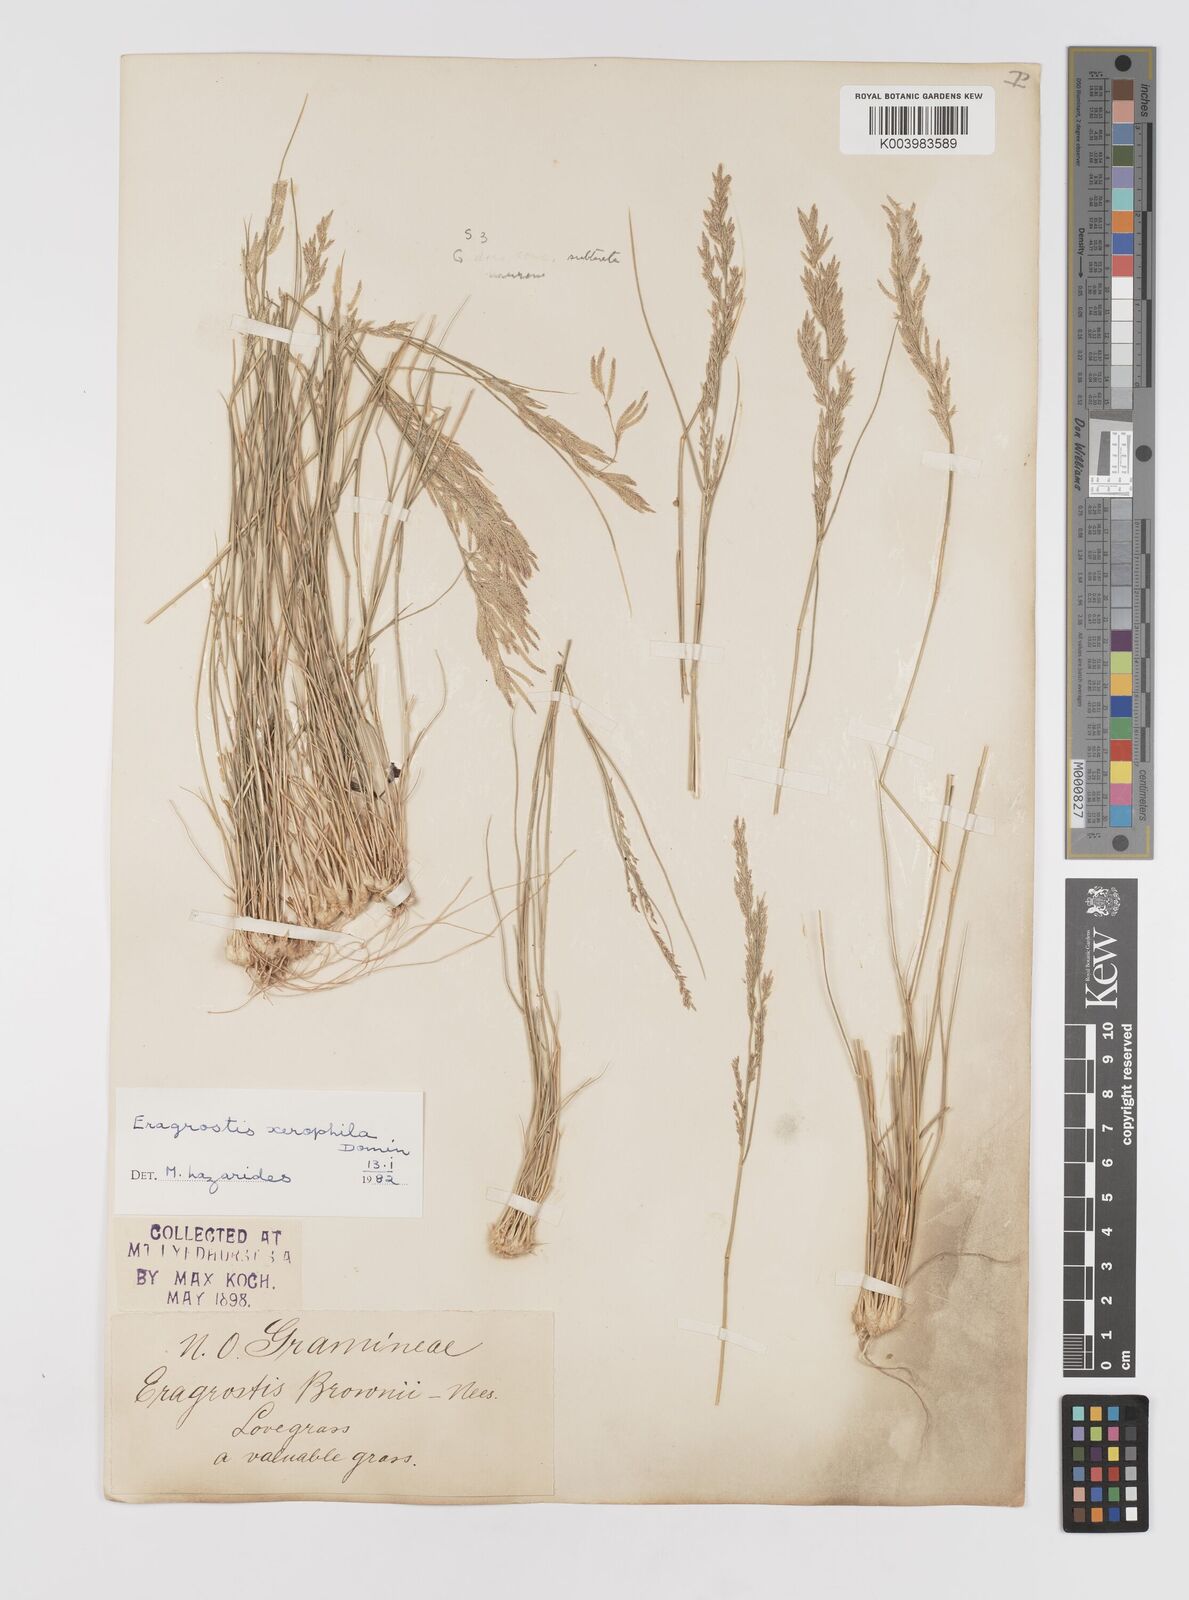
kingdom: Plantae
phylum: Tracheophyta
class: Liliopsida
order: Poales
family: Poaceae
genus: Eragrostis
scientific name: Eragrostis xerophila
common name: Wire wandarrie grass
